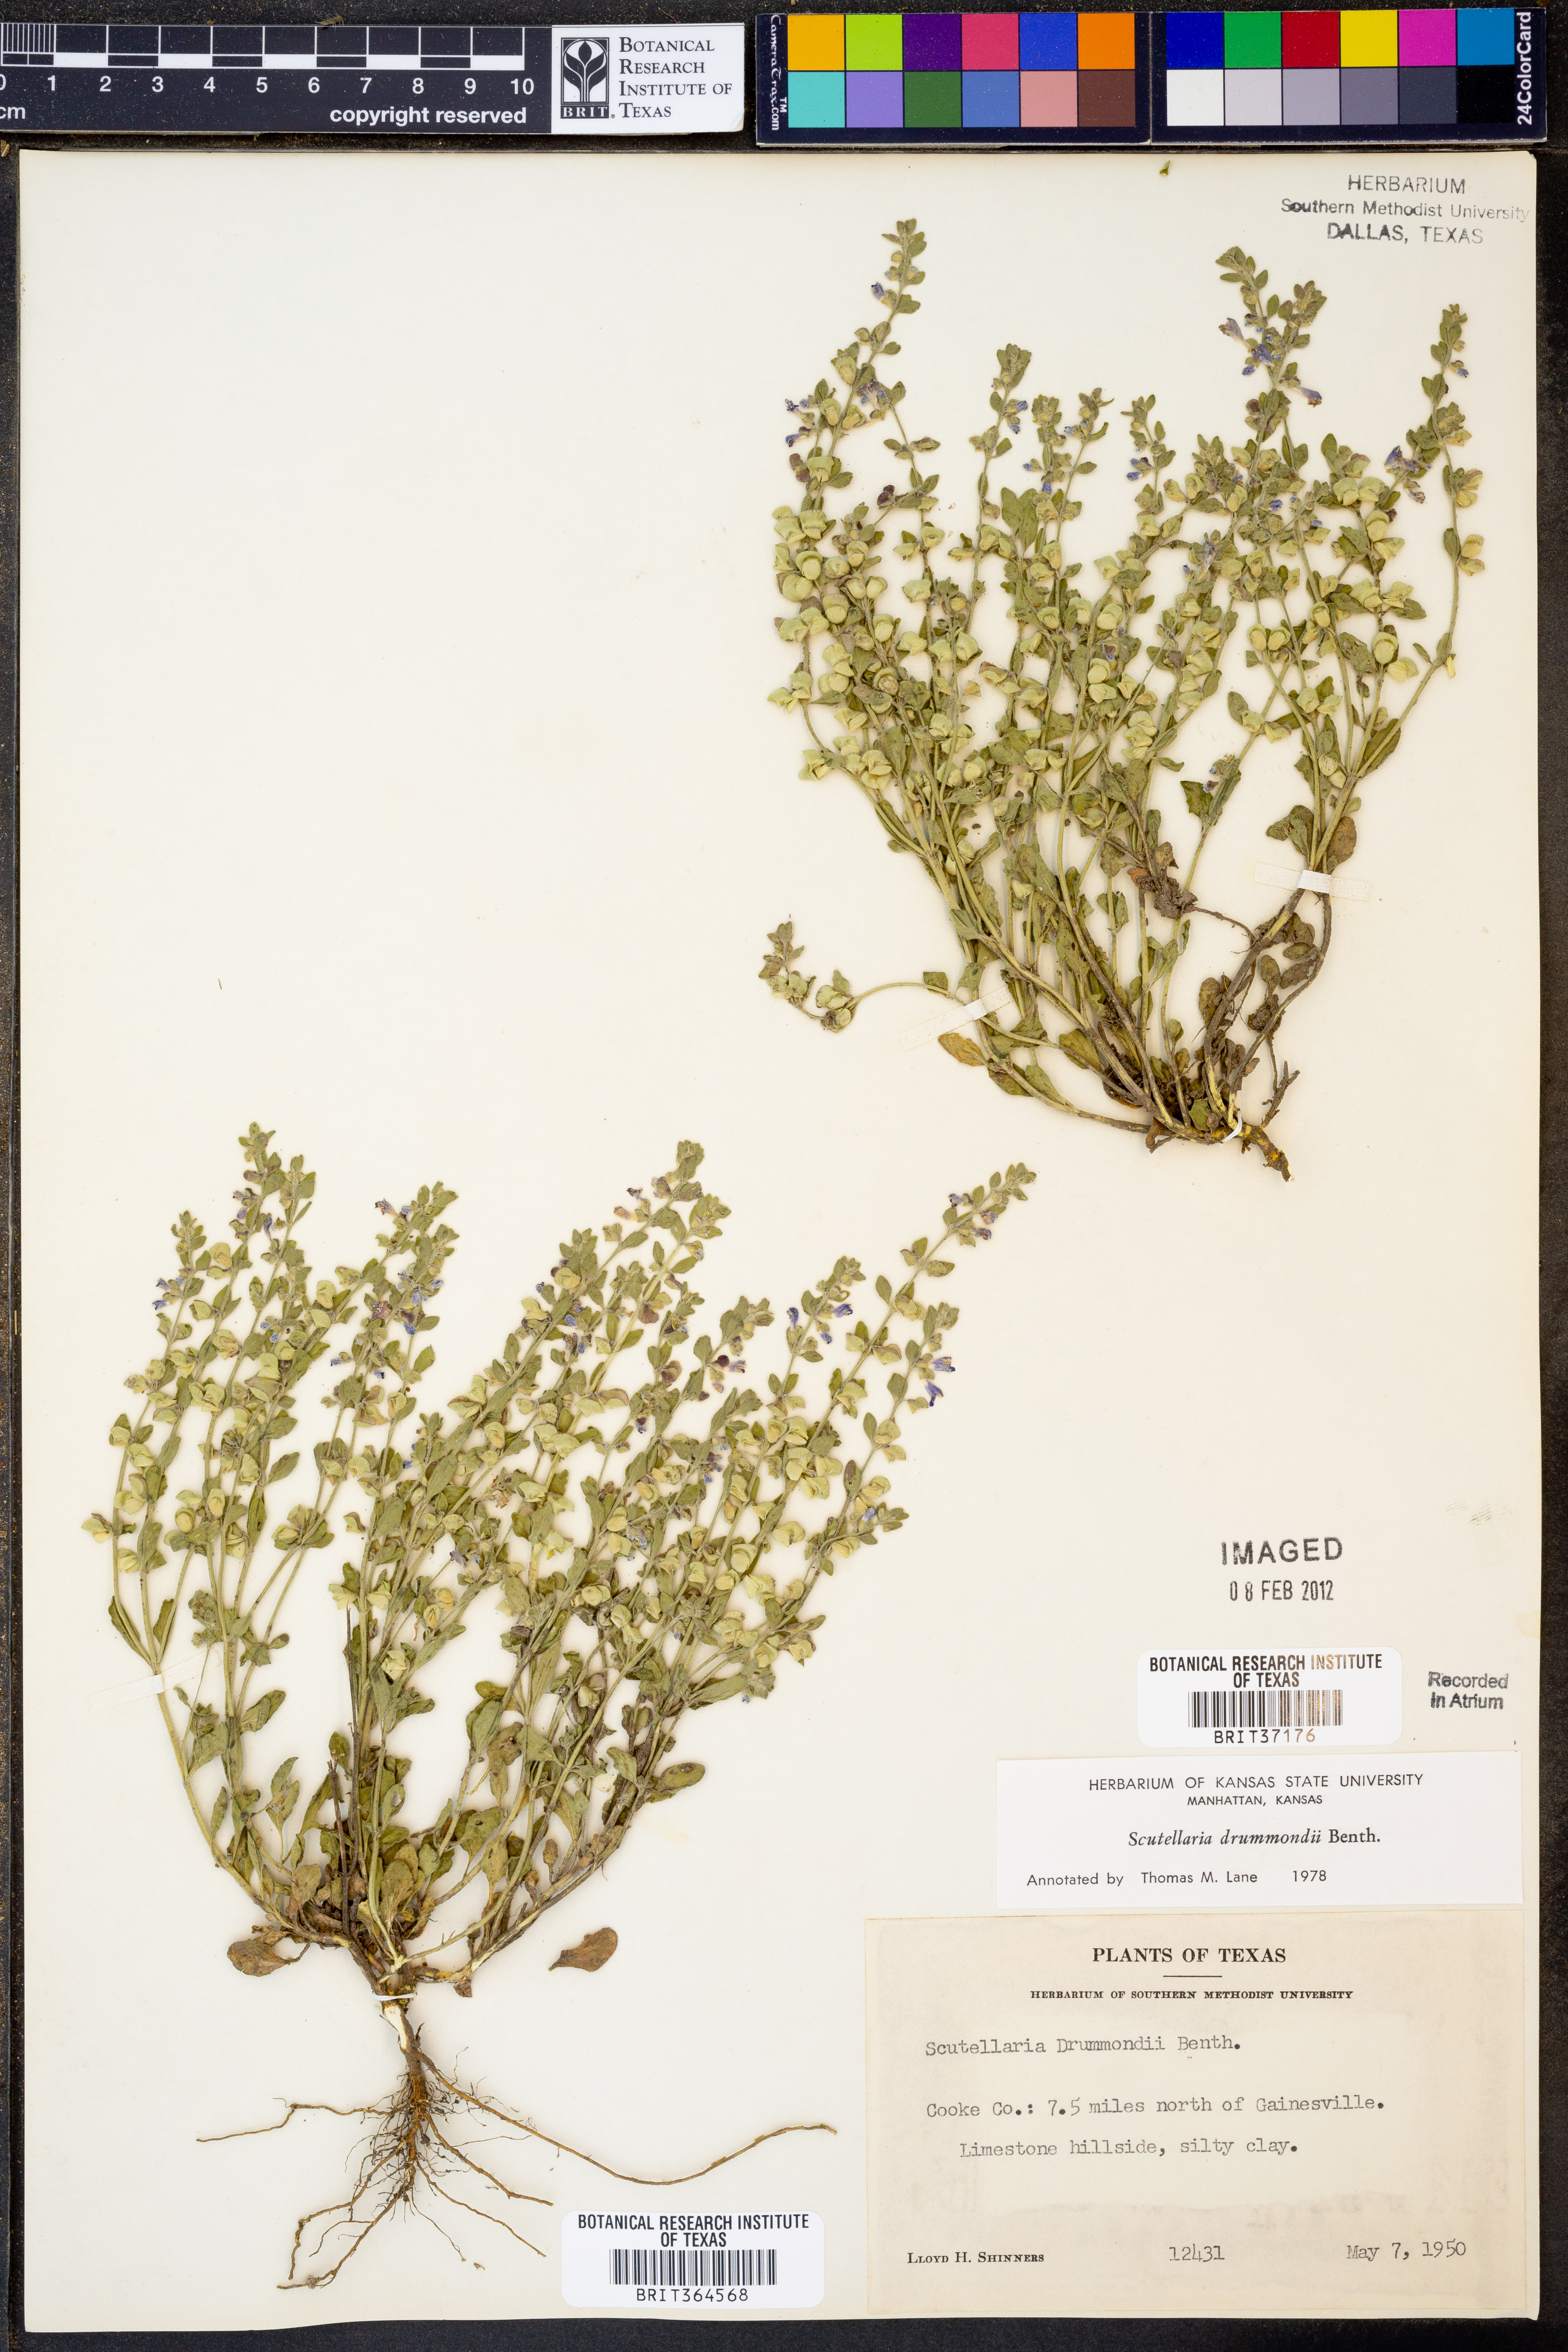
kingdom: Plantae
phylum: Tracheophyta
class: Magnoliopsida
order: Lamiales
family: Lamiaceae
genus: Scutellaria
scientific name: Scutellaria drummondii
